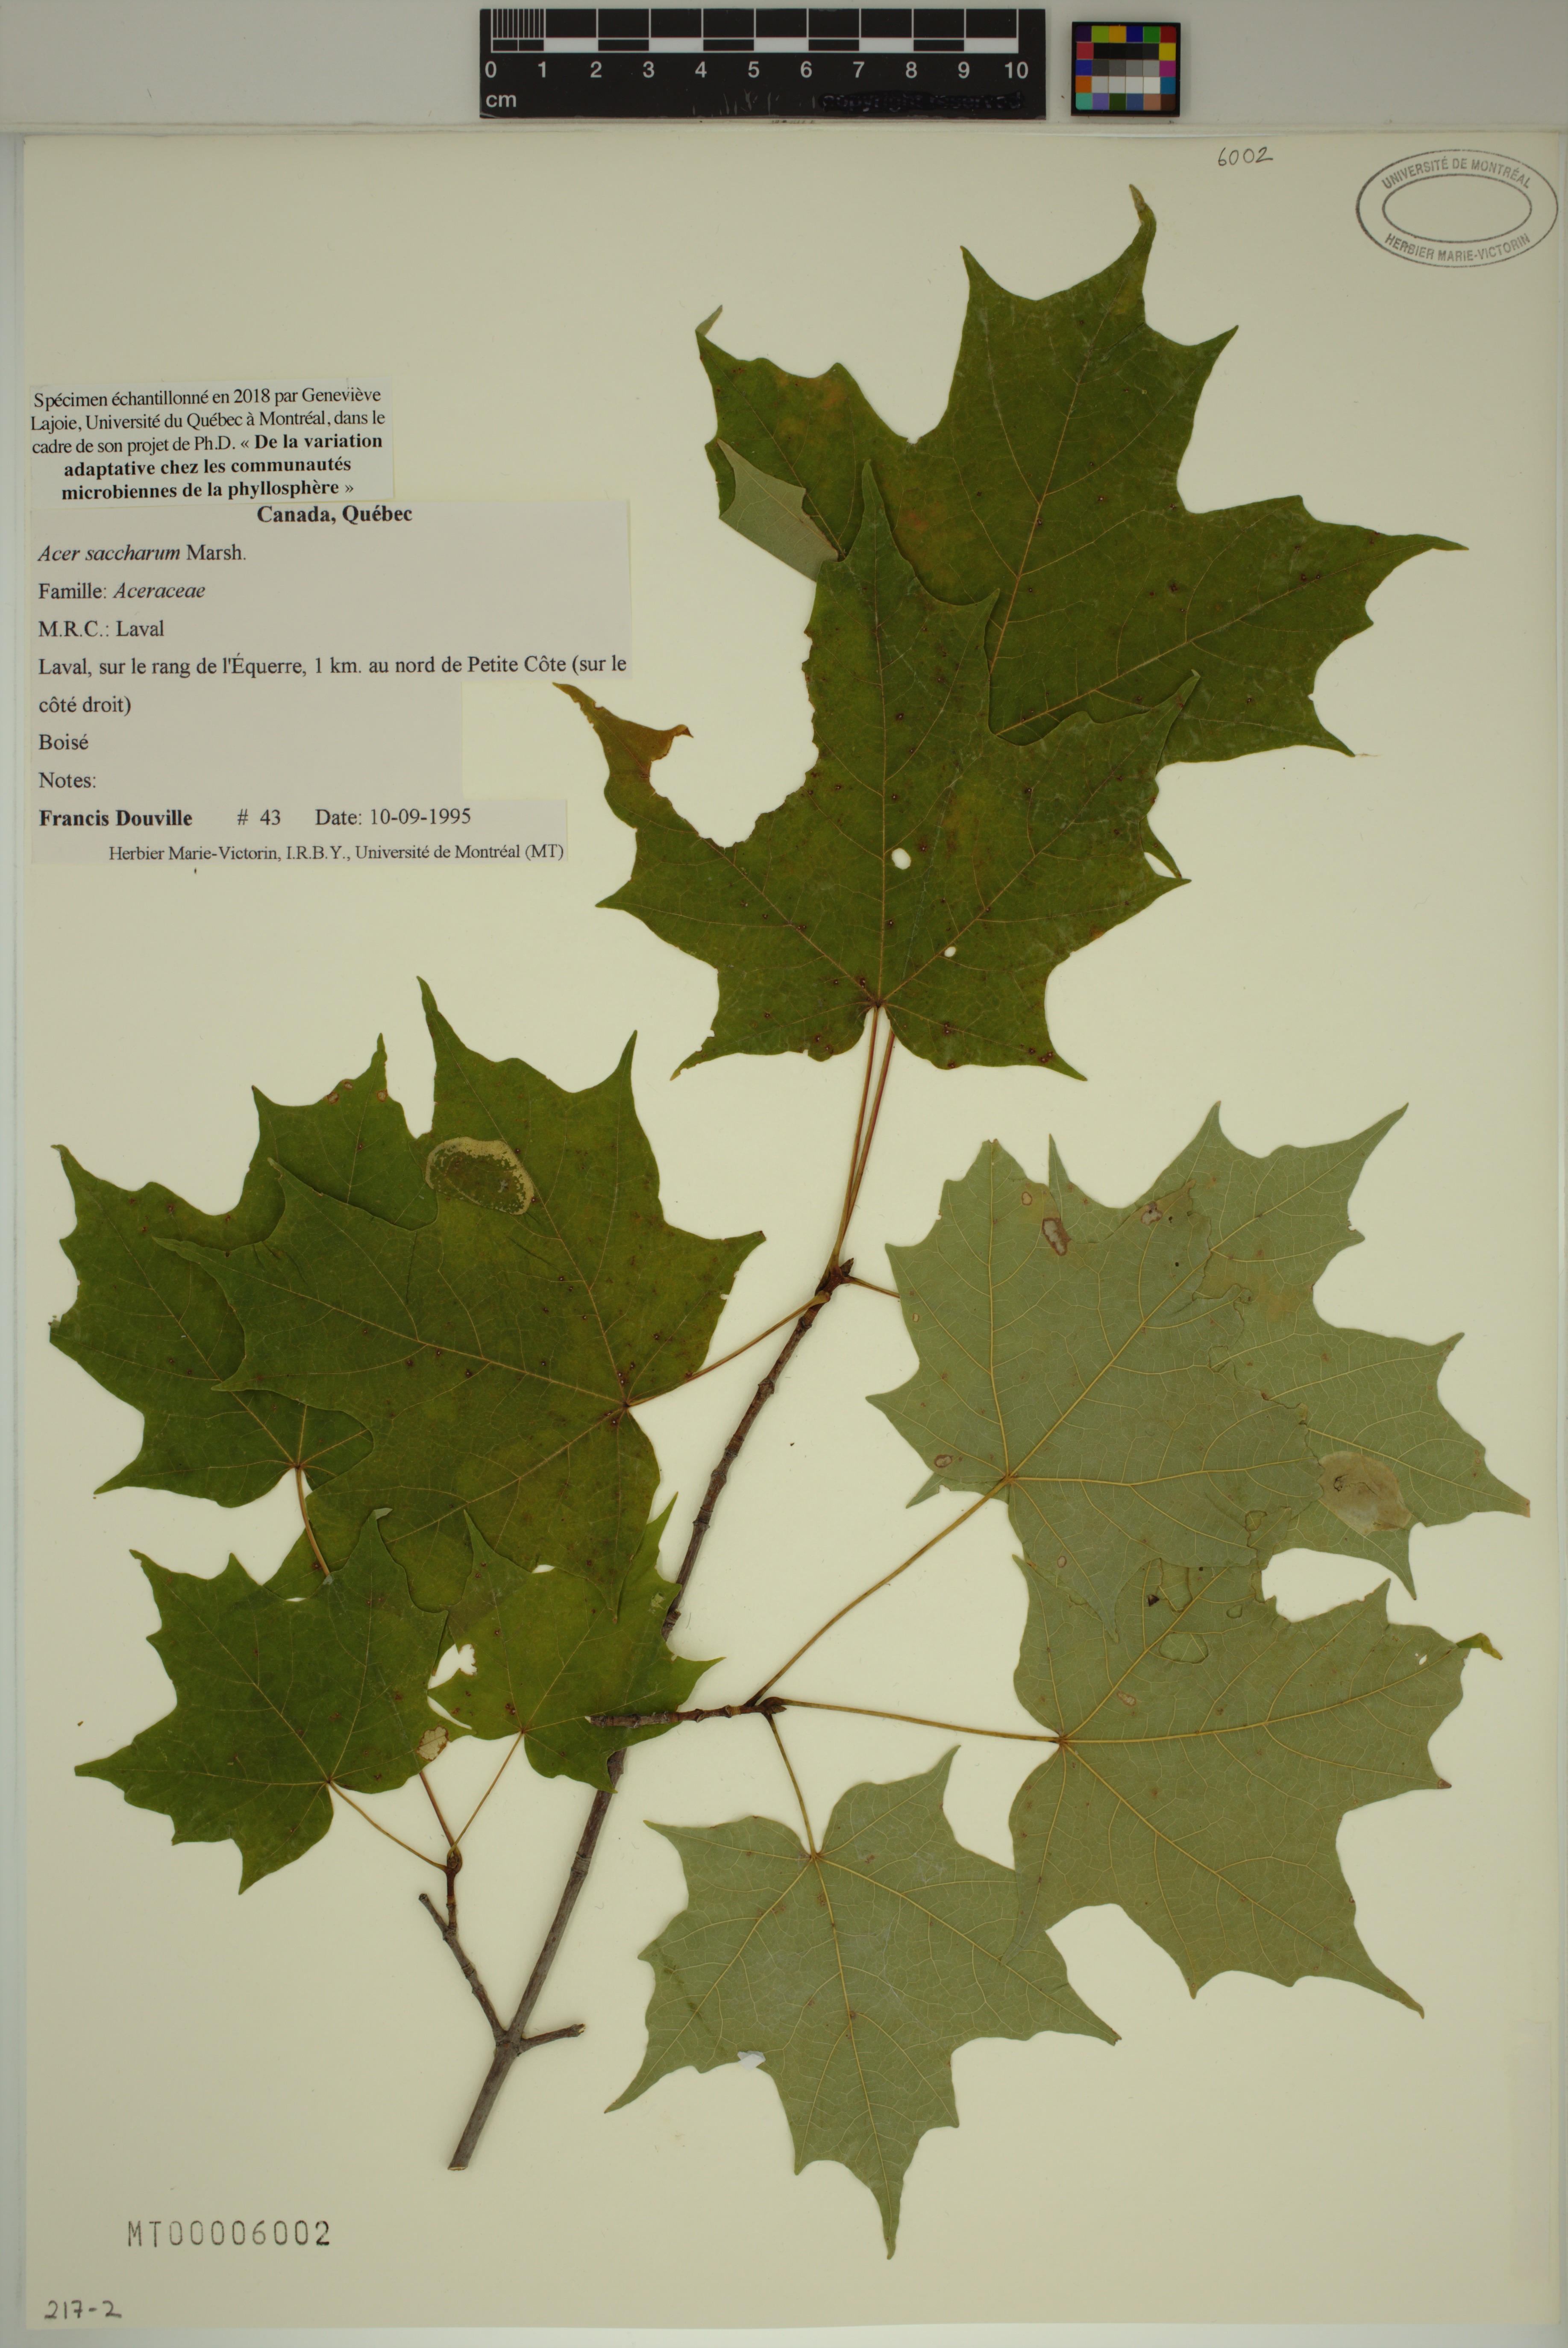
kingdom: Plantae
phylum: Tracheophyta
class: Magnoliopsida
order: Sapindales
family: Sapindaceae
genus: Acer
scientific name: Acer saccharum
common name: Sugar maple
